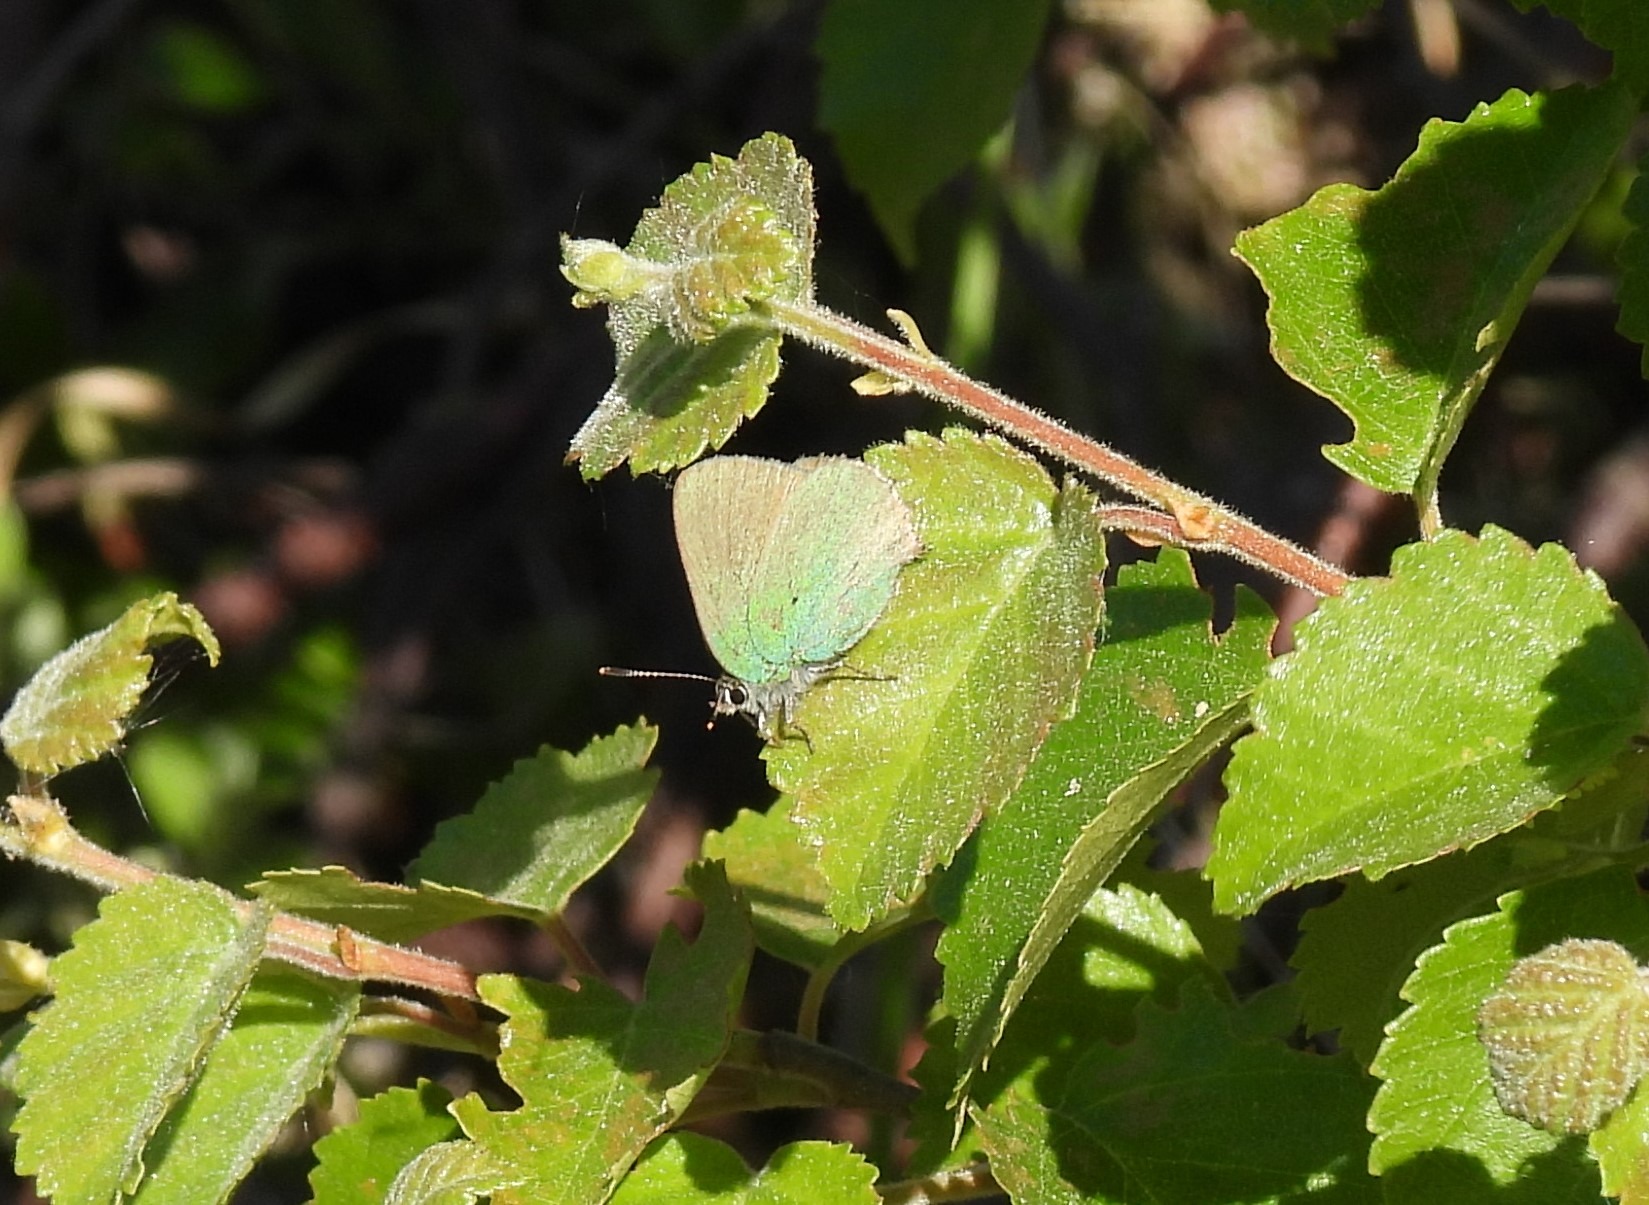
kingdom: Animalia
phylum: Arthropoda
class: Insecta
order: Lepidoptera
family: Lycaenidae
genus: Callophrys
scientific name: Callophrys rubi
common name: Grøn busksommerfugl
